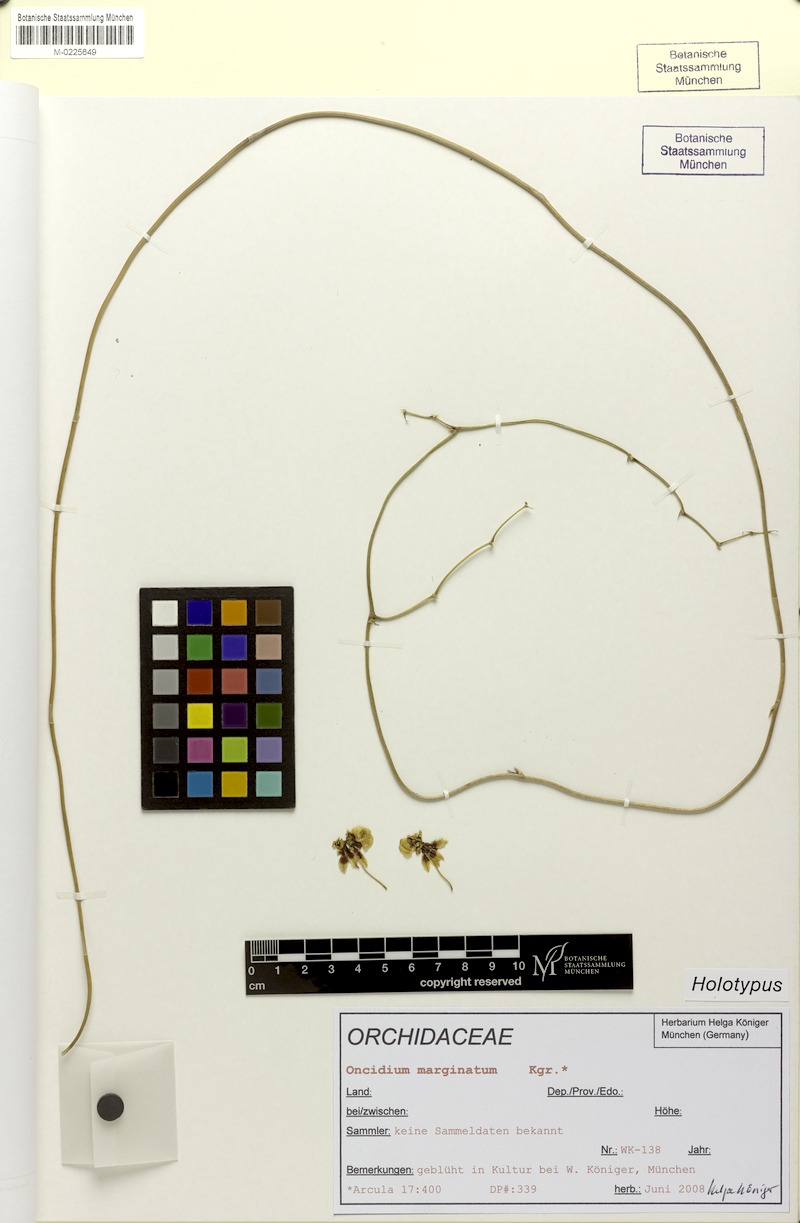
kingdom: Plantae
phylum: Tracheophyta
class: Liliopsida
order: Asparagales
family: Orchidaceae
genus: Oncidium
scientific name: Oncidium marginatum
